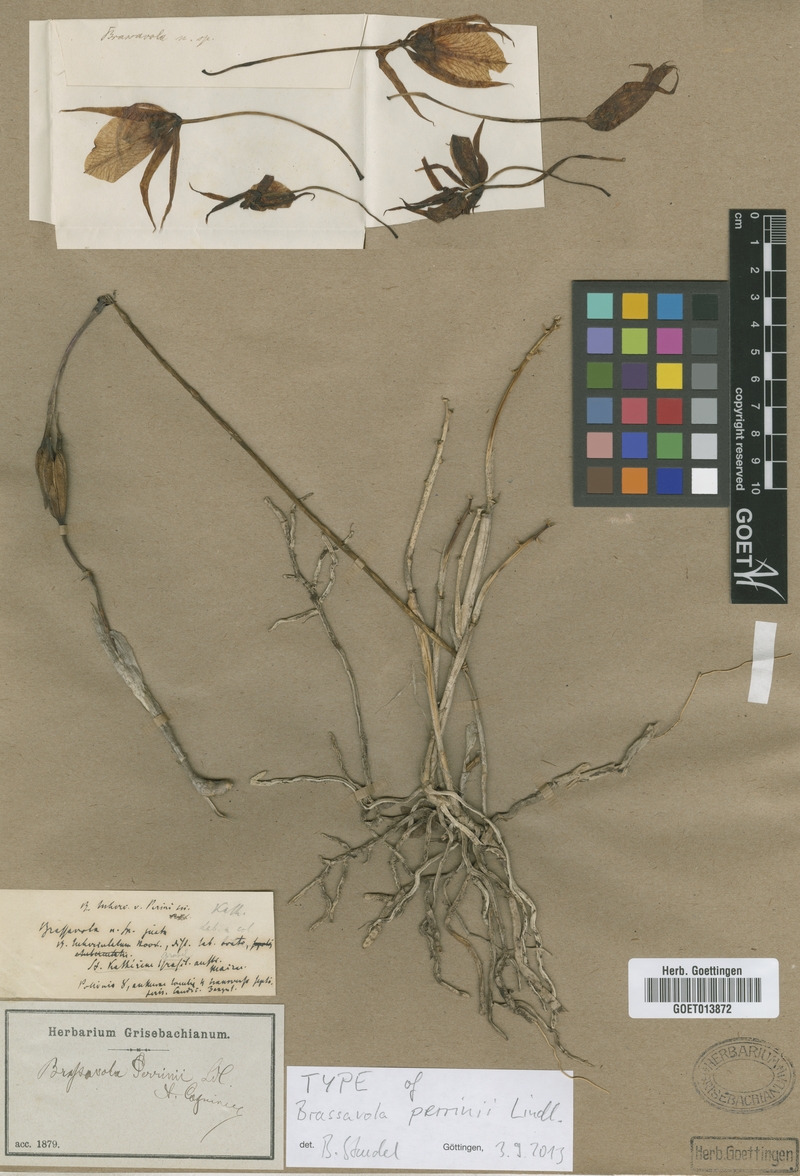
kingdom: Plantae
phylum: Tracheophyta
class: Liliopsida
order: Asparagales
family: Orchidaceae
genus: Brassavola
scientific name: Brassavola tuberculata
